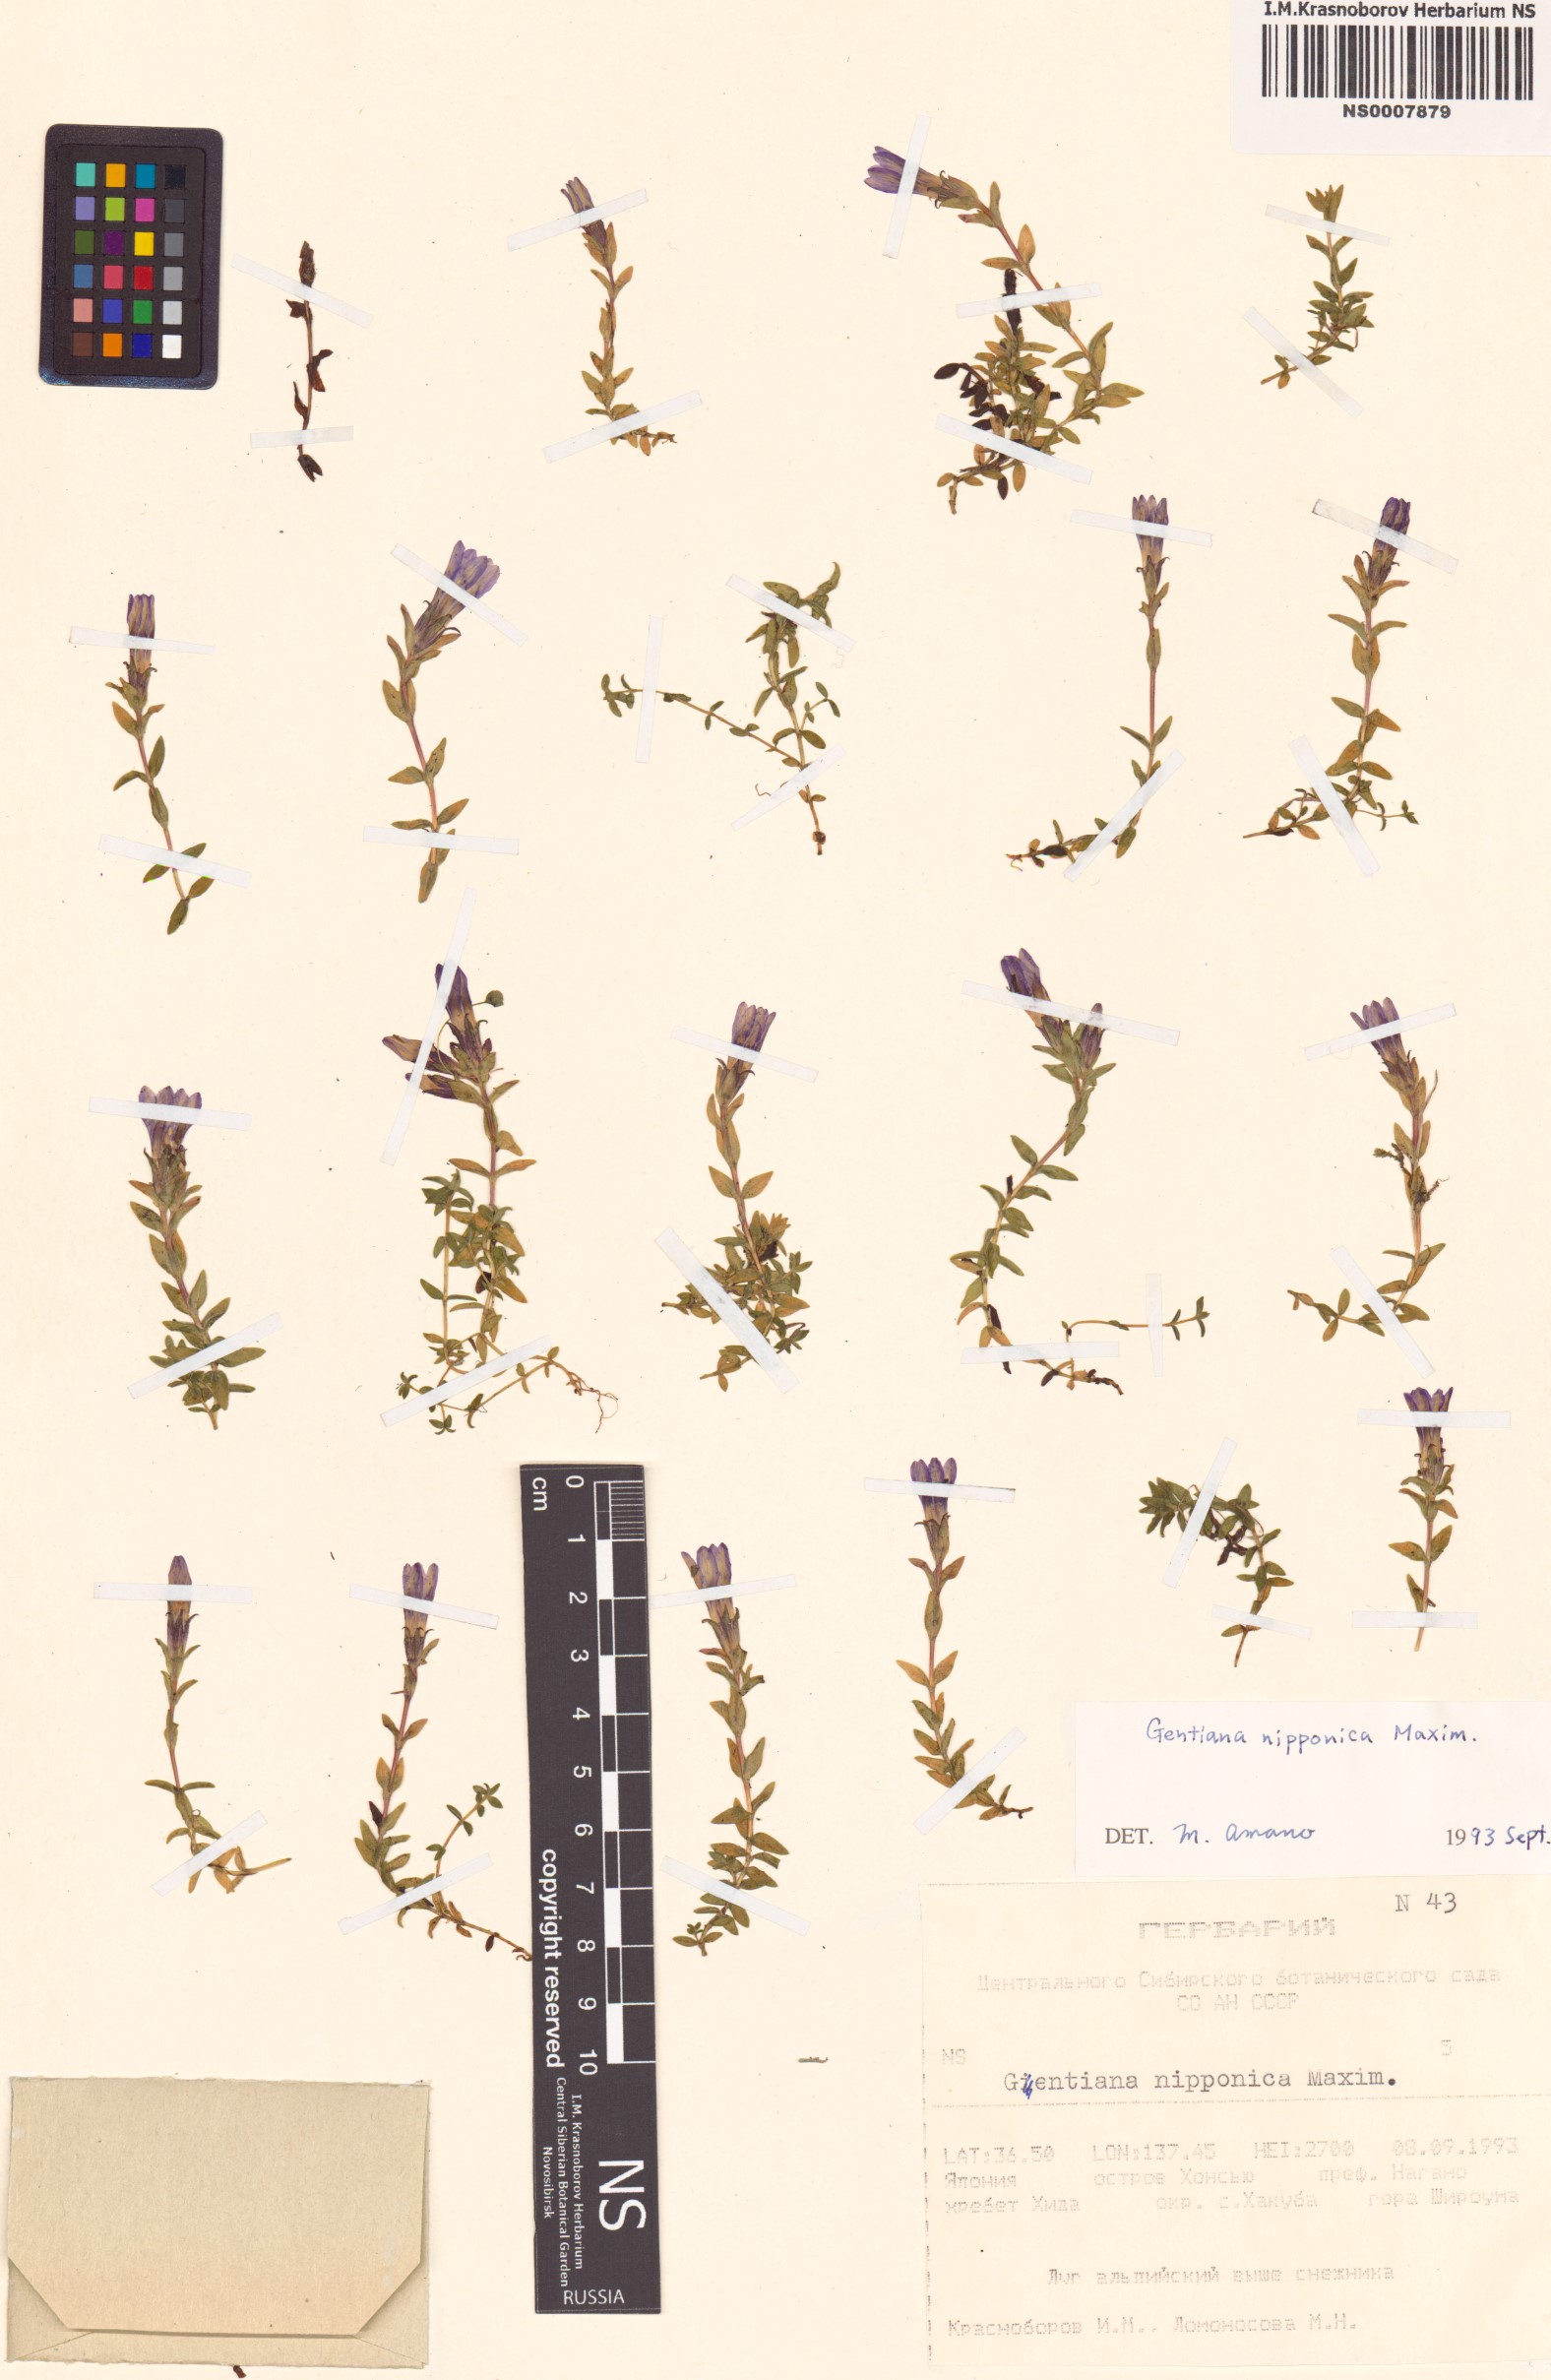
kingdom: Plantae
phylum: Tracheophyta
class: Magnoliopsida
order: Gentianales
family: Gentianaceae
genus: Gentiana
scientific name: Gentiana nipponica
